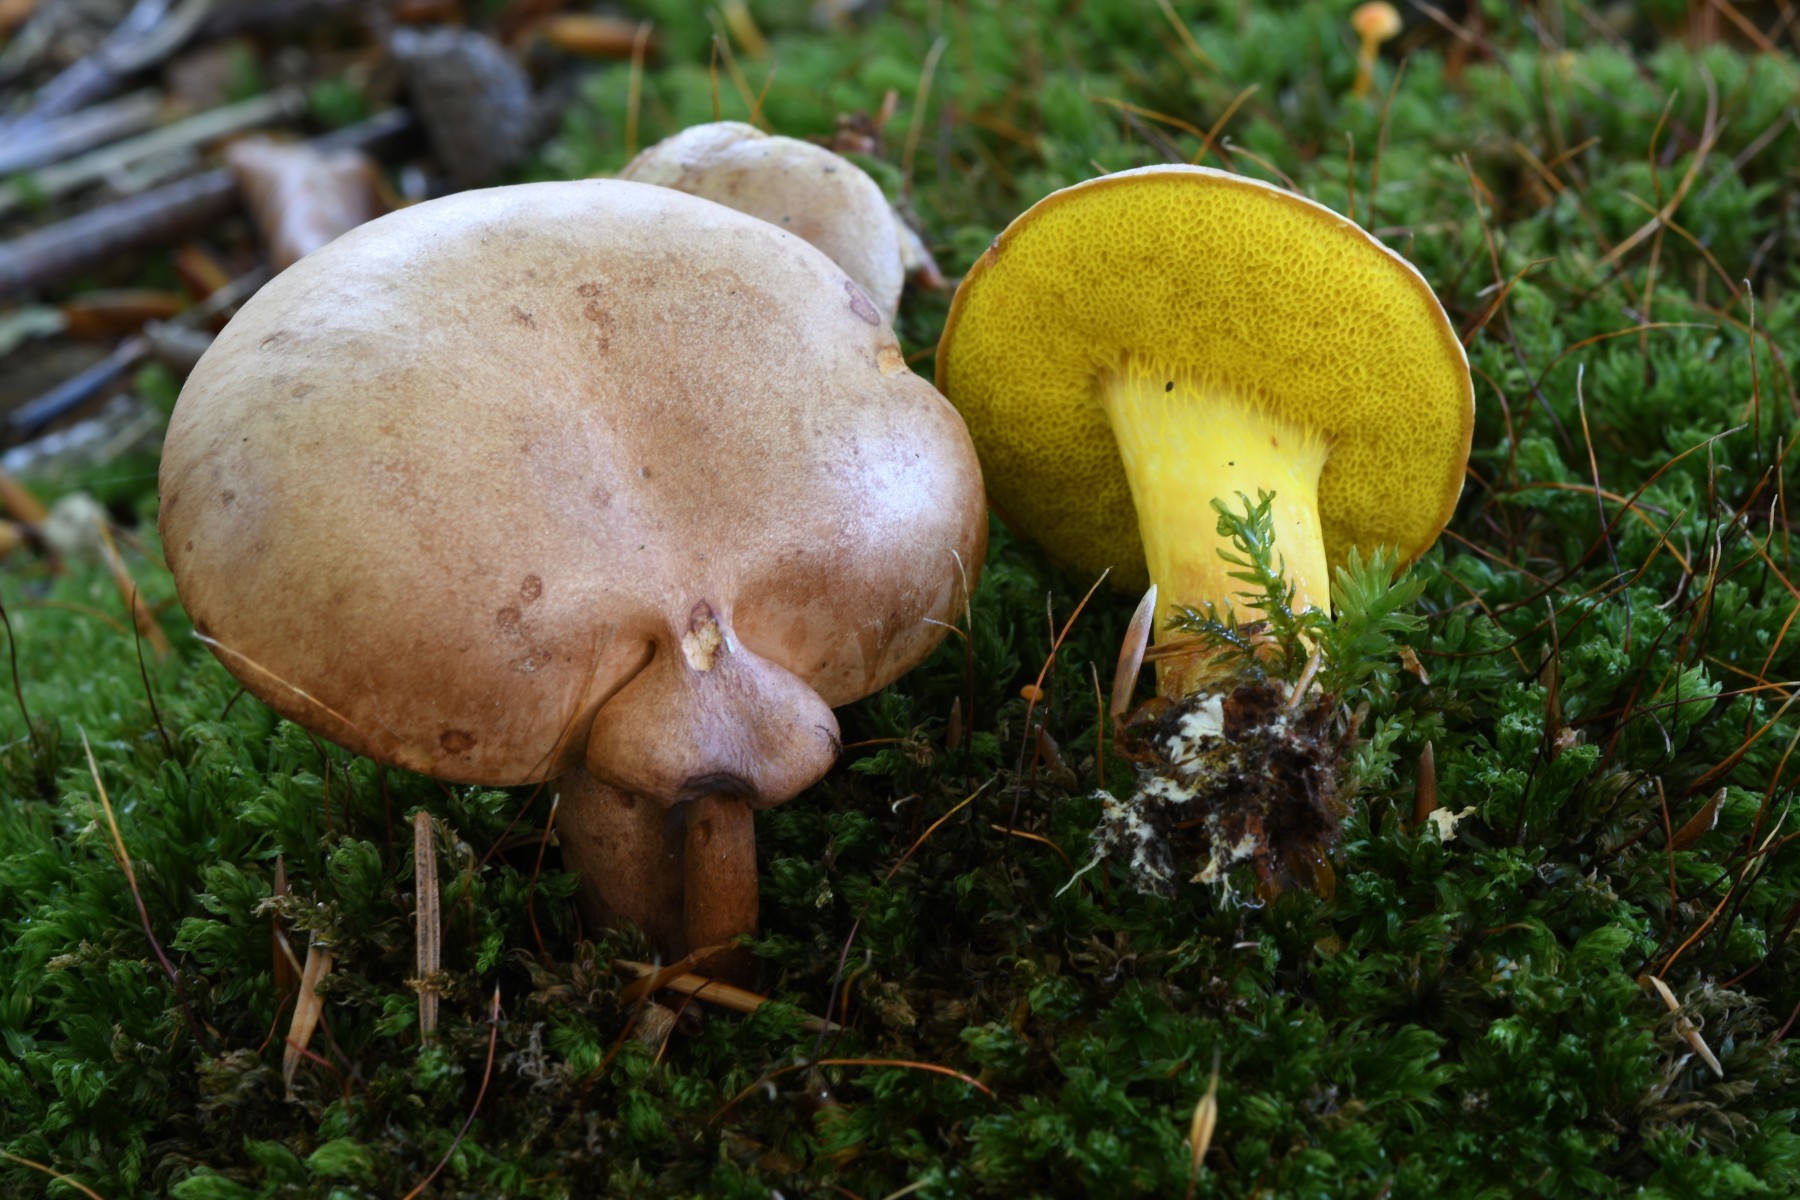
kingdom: Fungi
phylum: Basidiomycota
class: Agaricomycetes
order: Boletales
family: Boletaceae
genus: Aureoboletus
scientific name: Aureoboletus gentilis
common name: guldrørhat
